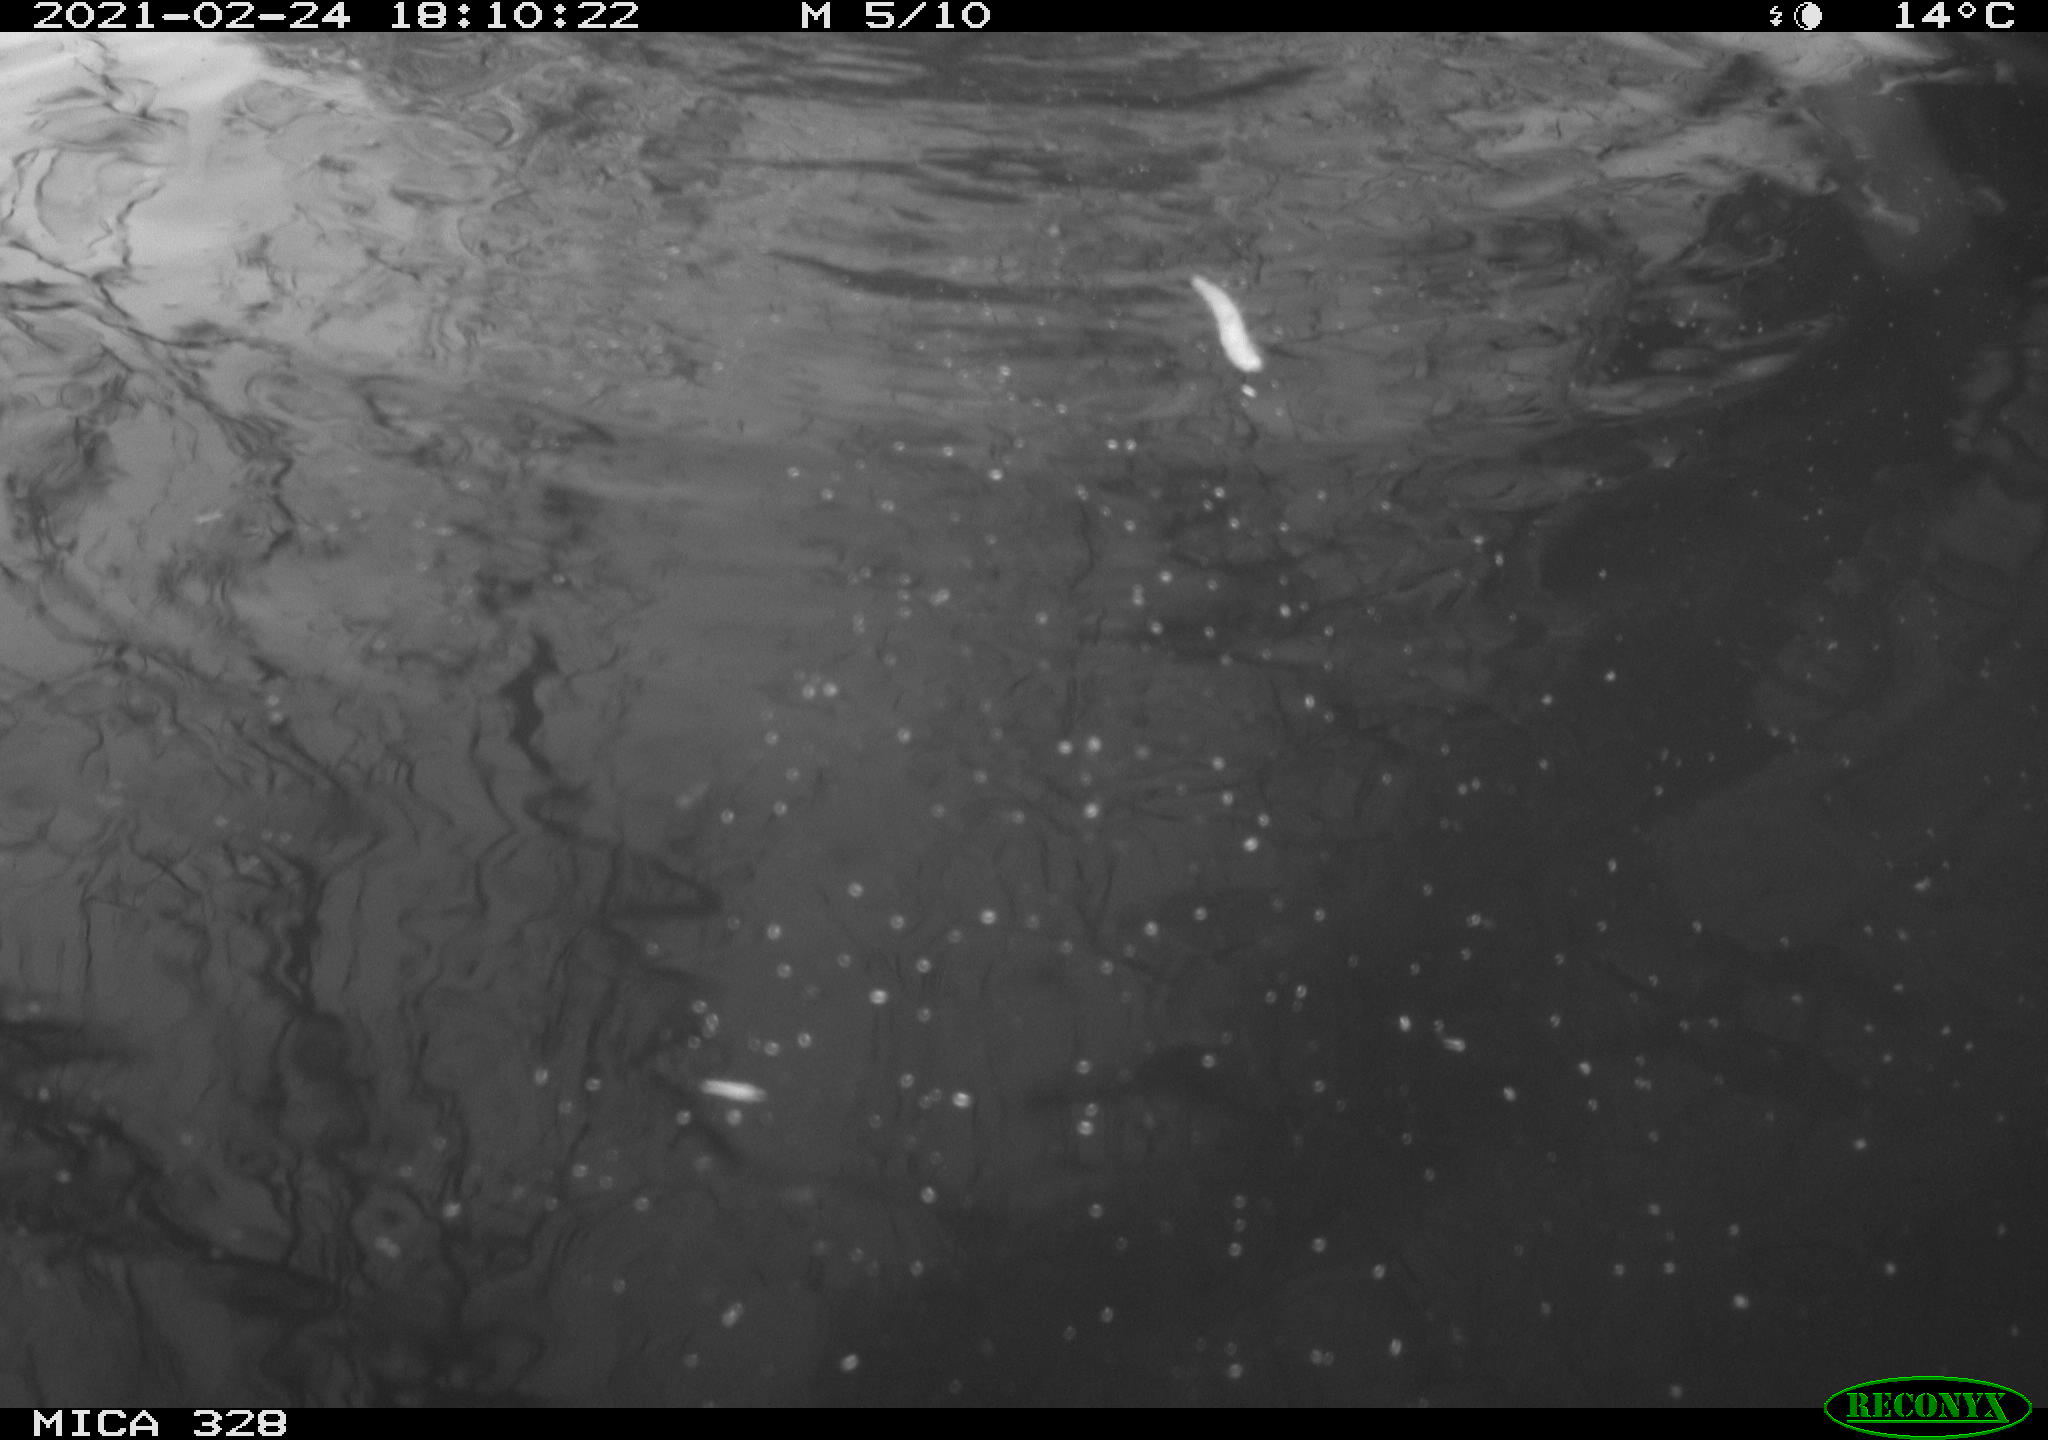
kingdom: Animalia
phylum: Chordata
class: Mammalia
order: Rodentia
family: Myocastoridae
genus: Myocastor
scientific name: Myocastor coypus
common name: Coypu
